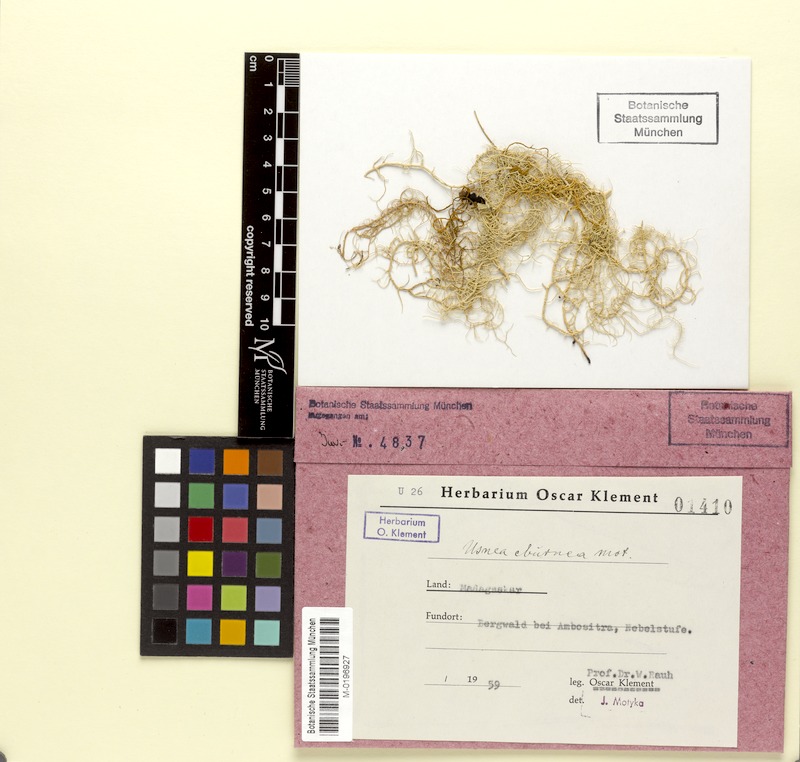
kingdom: Fungi
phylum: Ascomycota
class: Lecanoromycetes
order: Lecanorales
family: Parmeliaceae
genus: Usnea
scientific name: Usnea
